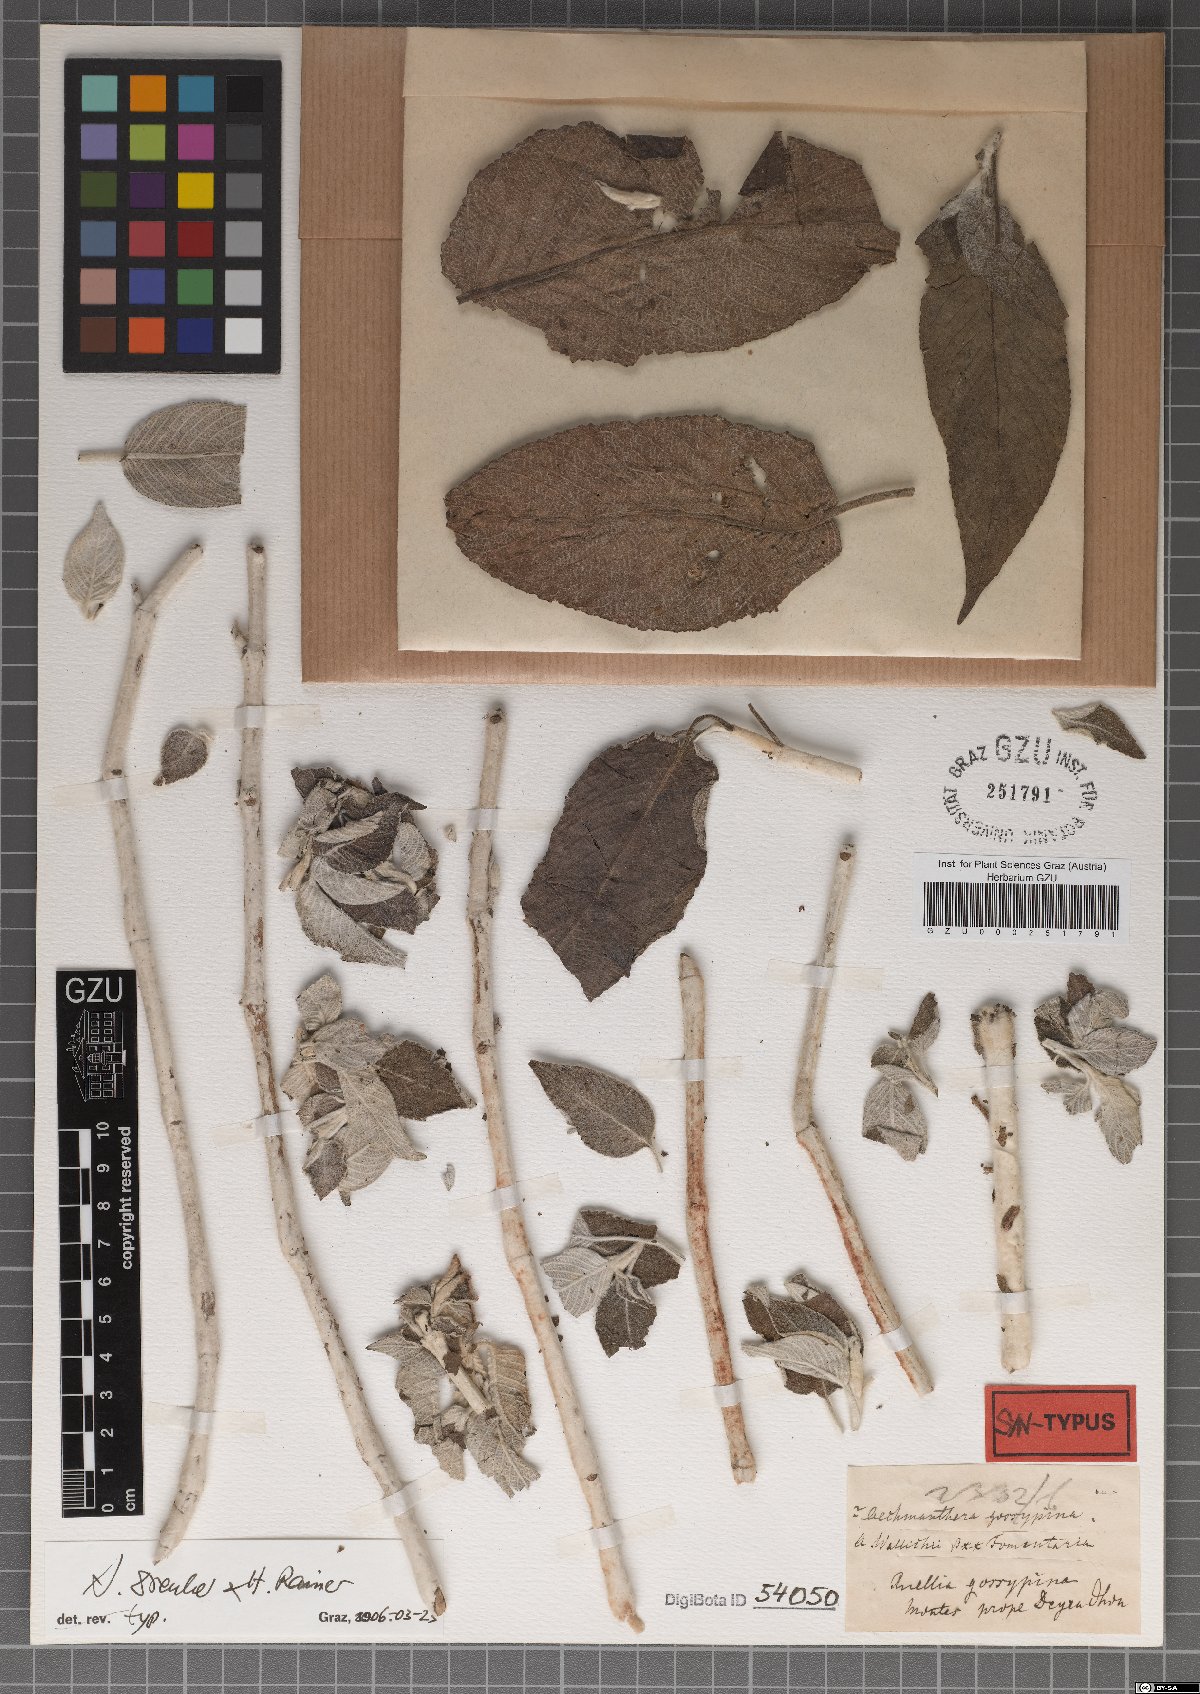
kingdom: Plantae
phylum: Tracheophyta
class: Magnoliopsida
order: Lamiales
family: Acanthaceae
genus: Strobilanthes
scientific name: Strobilanthes tomentosa
